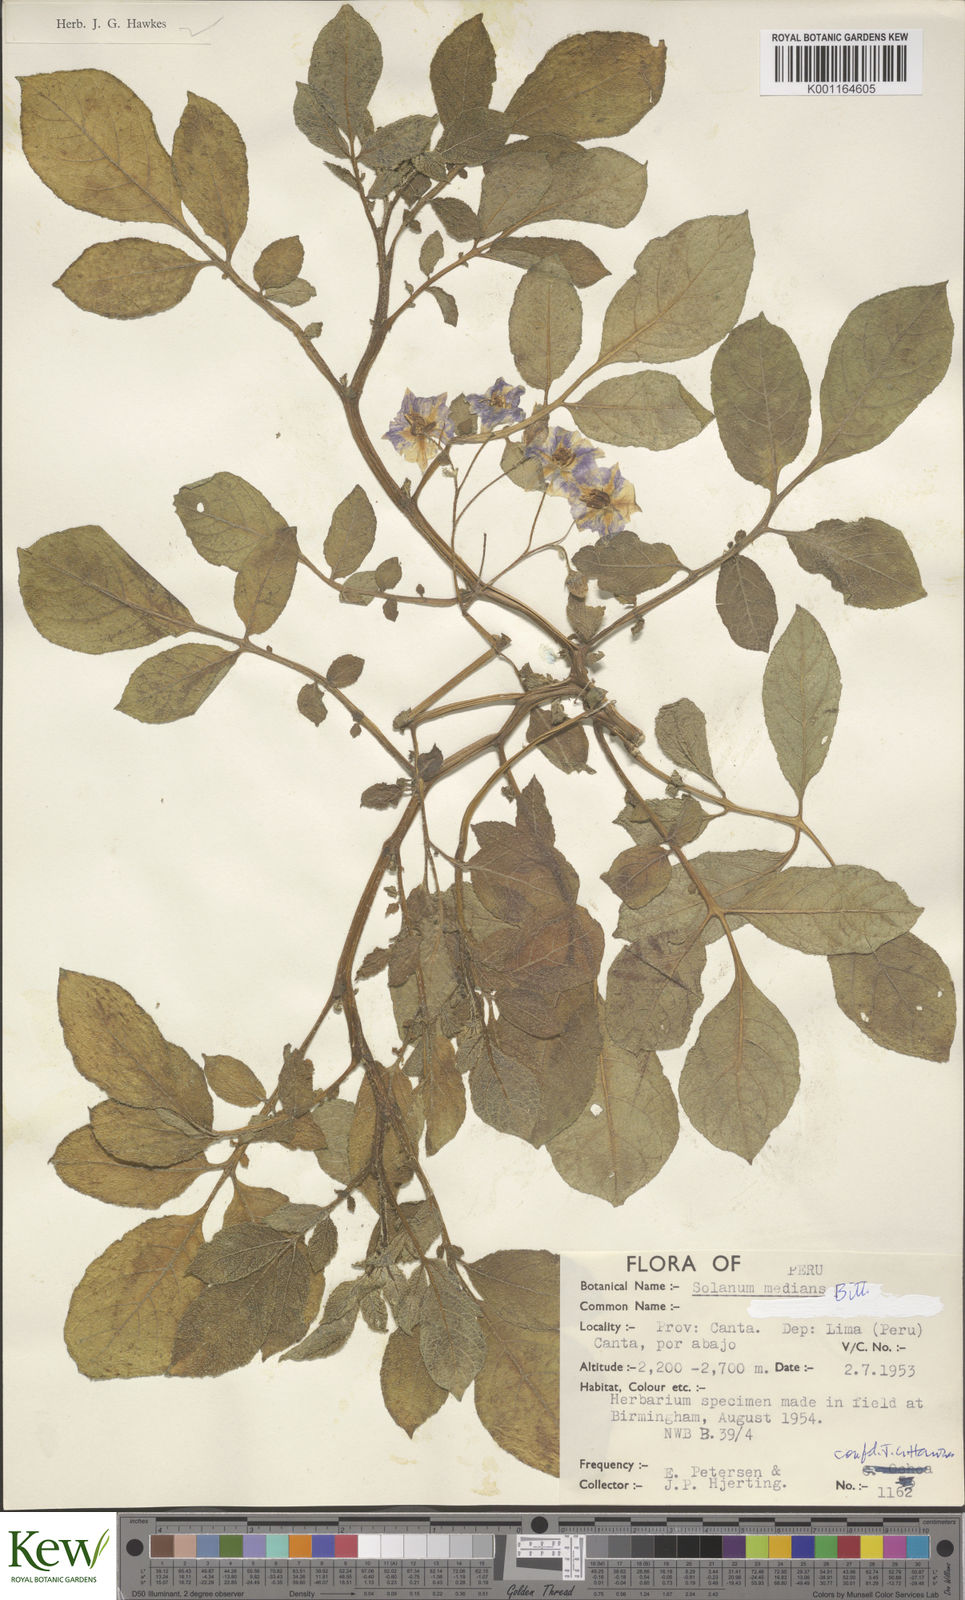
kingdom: Plantae
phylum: Tracheophyta
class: Magnoliopsida
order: Solanales
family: Solanaceae
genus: Solanum
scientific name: Solanum medians
